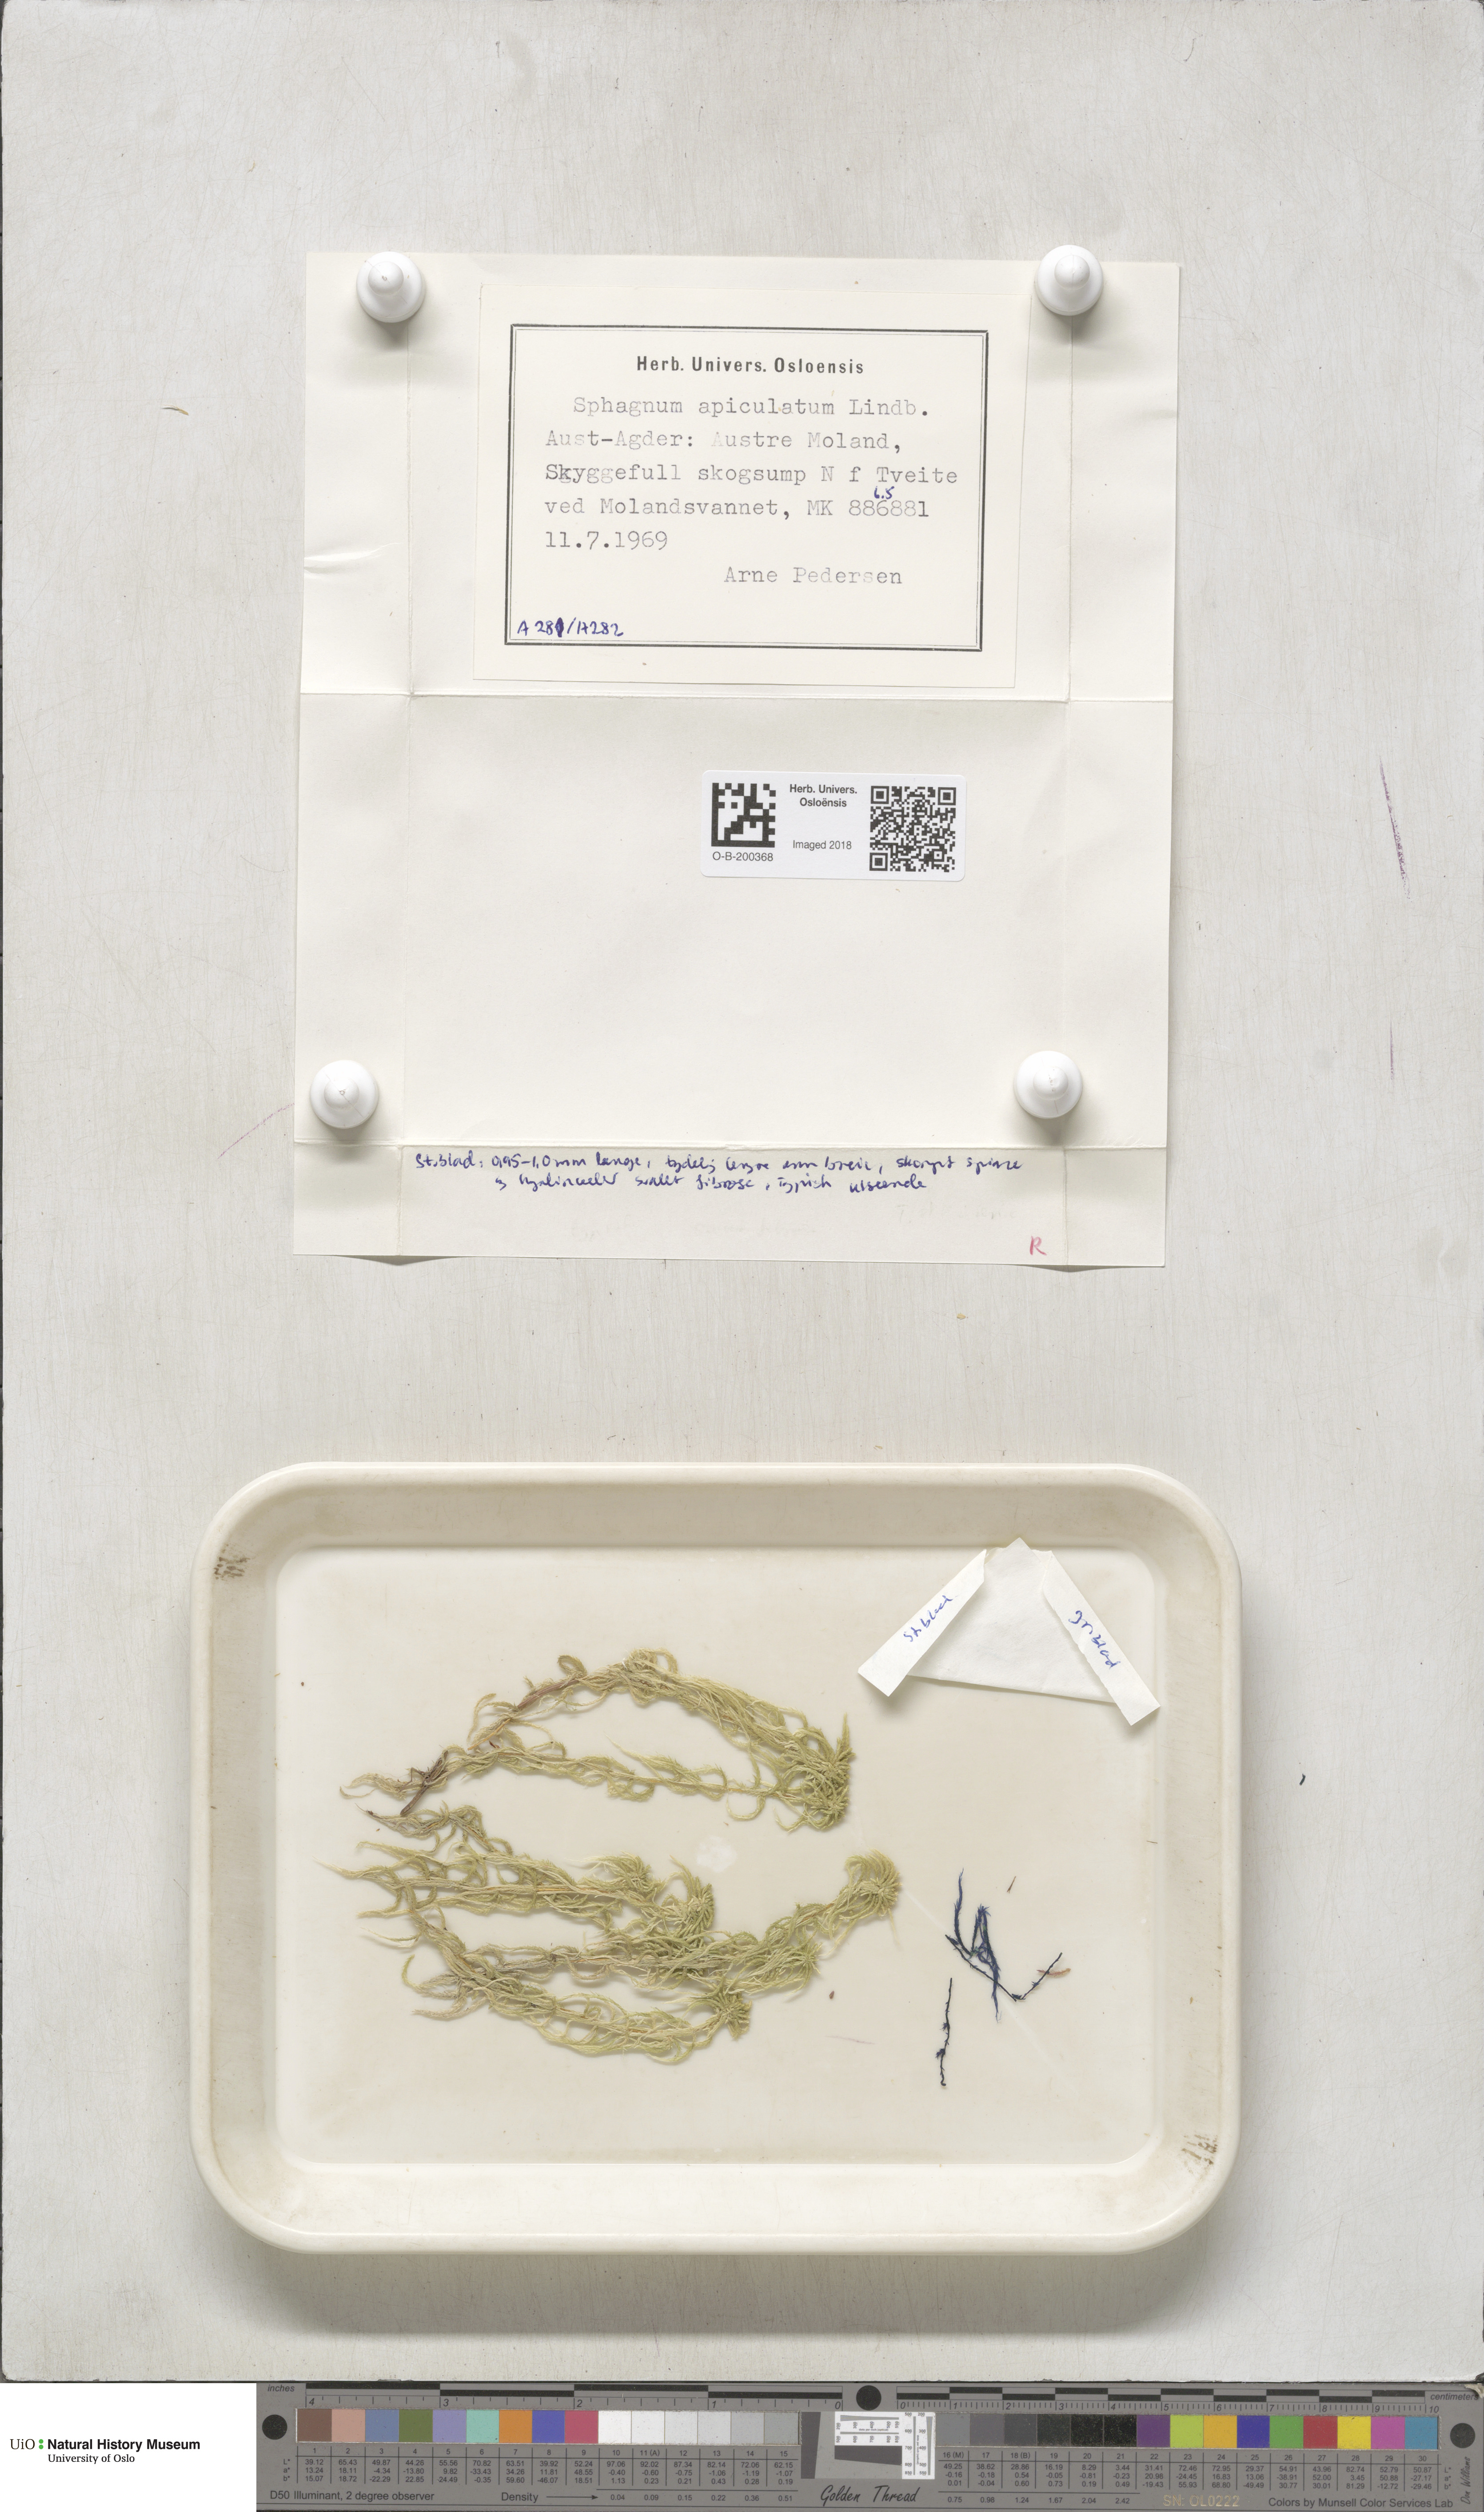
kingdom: Plantae
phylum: Bryophyta
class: Sphagnopsida
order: Sphagnales
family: Sphagnaceae
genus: Sphagnum
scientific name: Sphagnum fallax
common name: Flat-top peat moss
